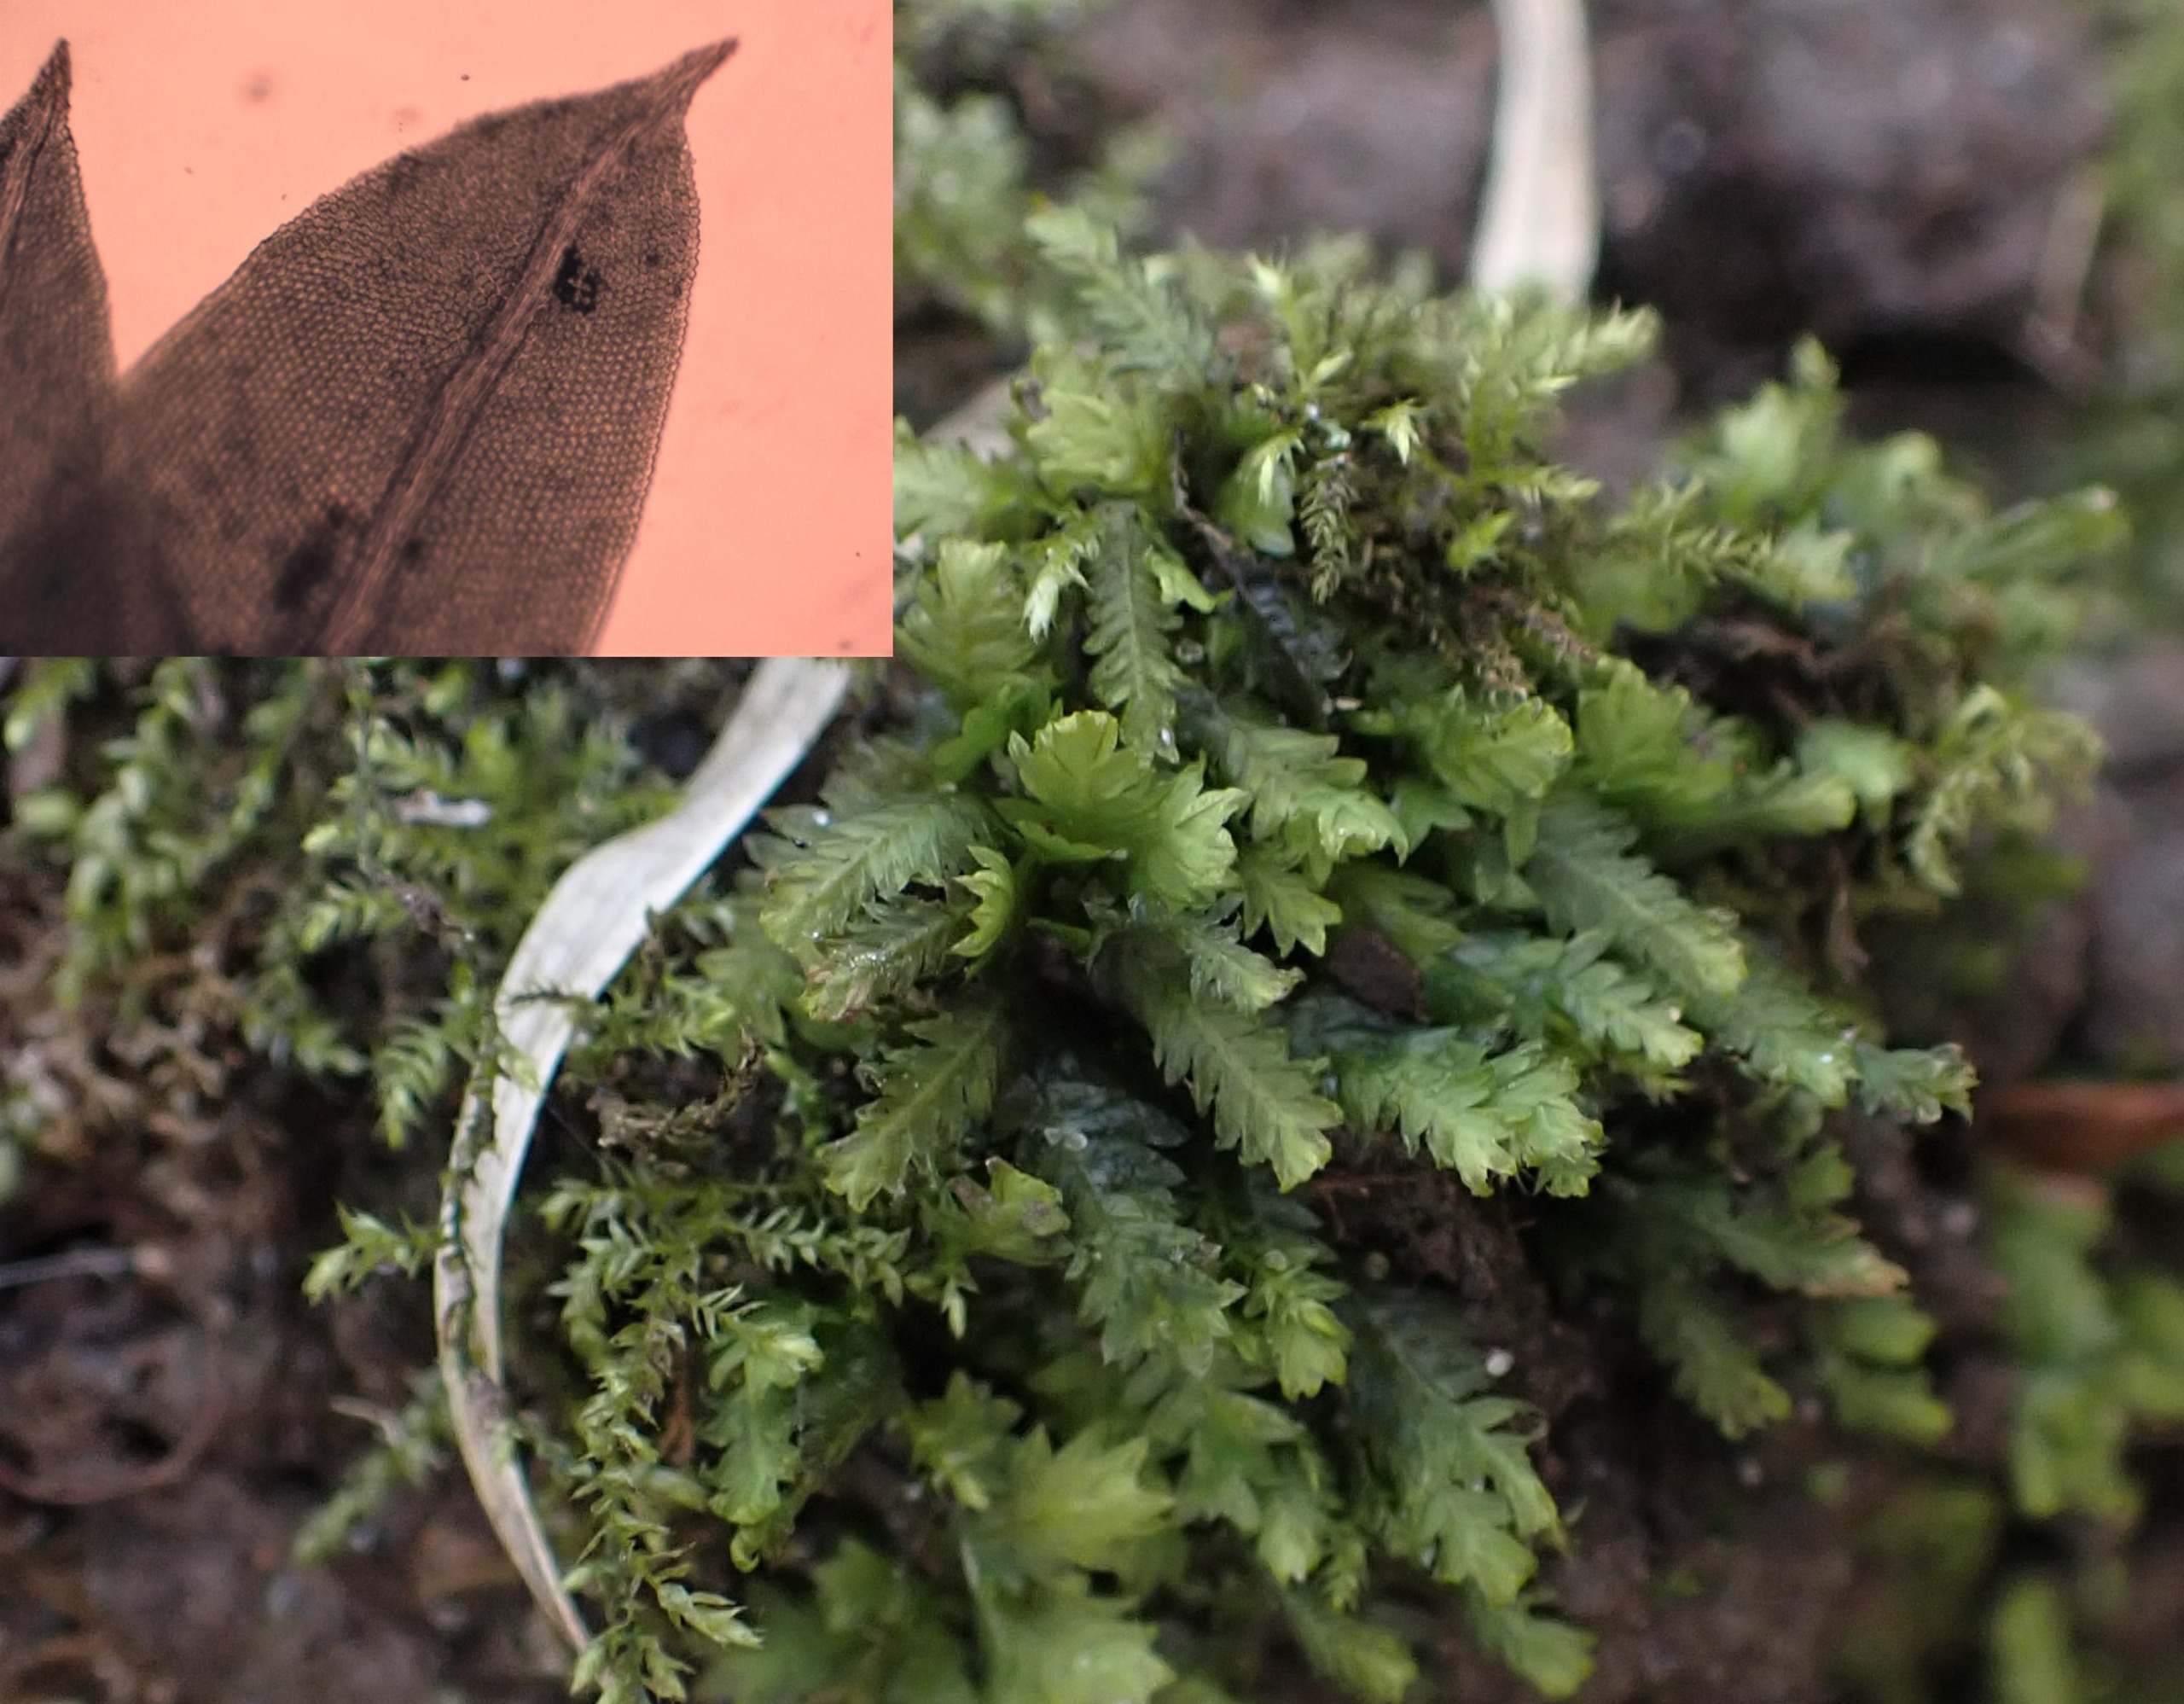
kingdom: Plantae
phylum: Bryophyta
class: Bryopsida
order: Dicranales
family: Fissidentaceae
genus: Fissidens
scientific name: Fissidens taxifolius
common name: Taksbladet rademos
